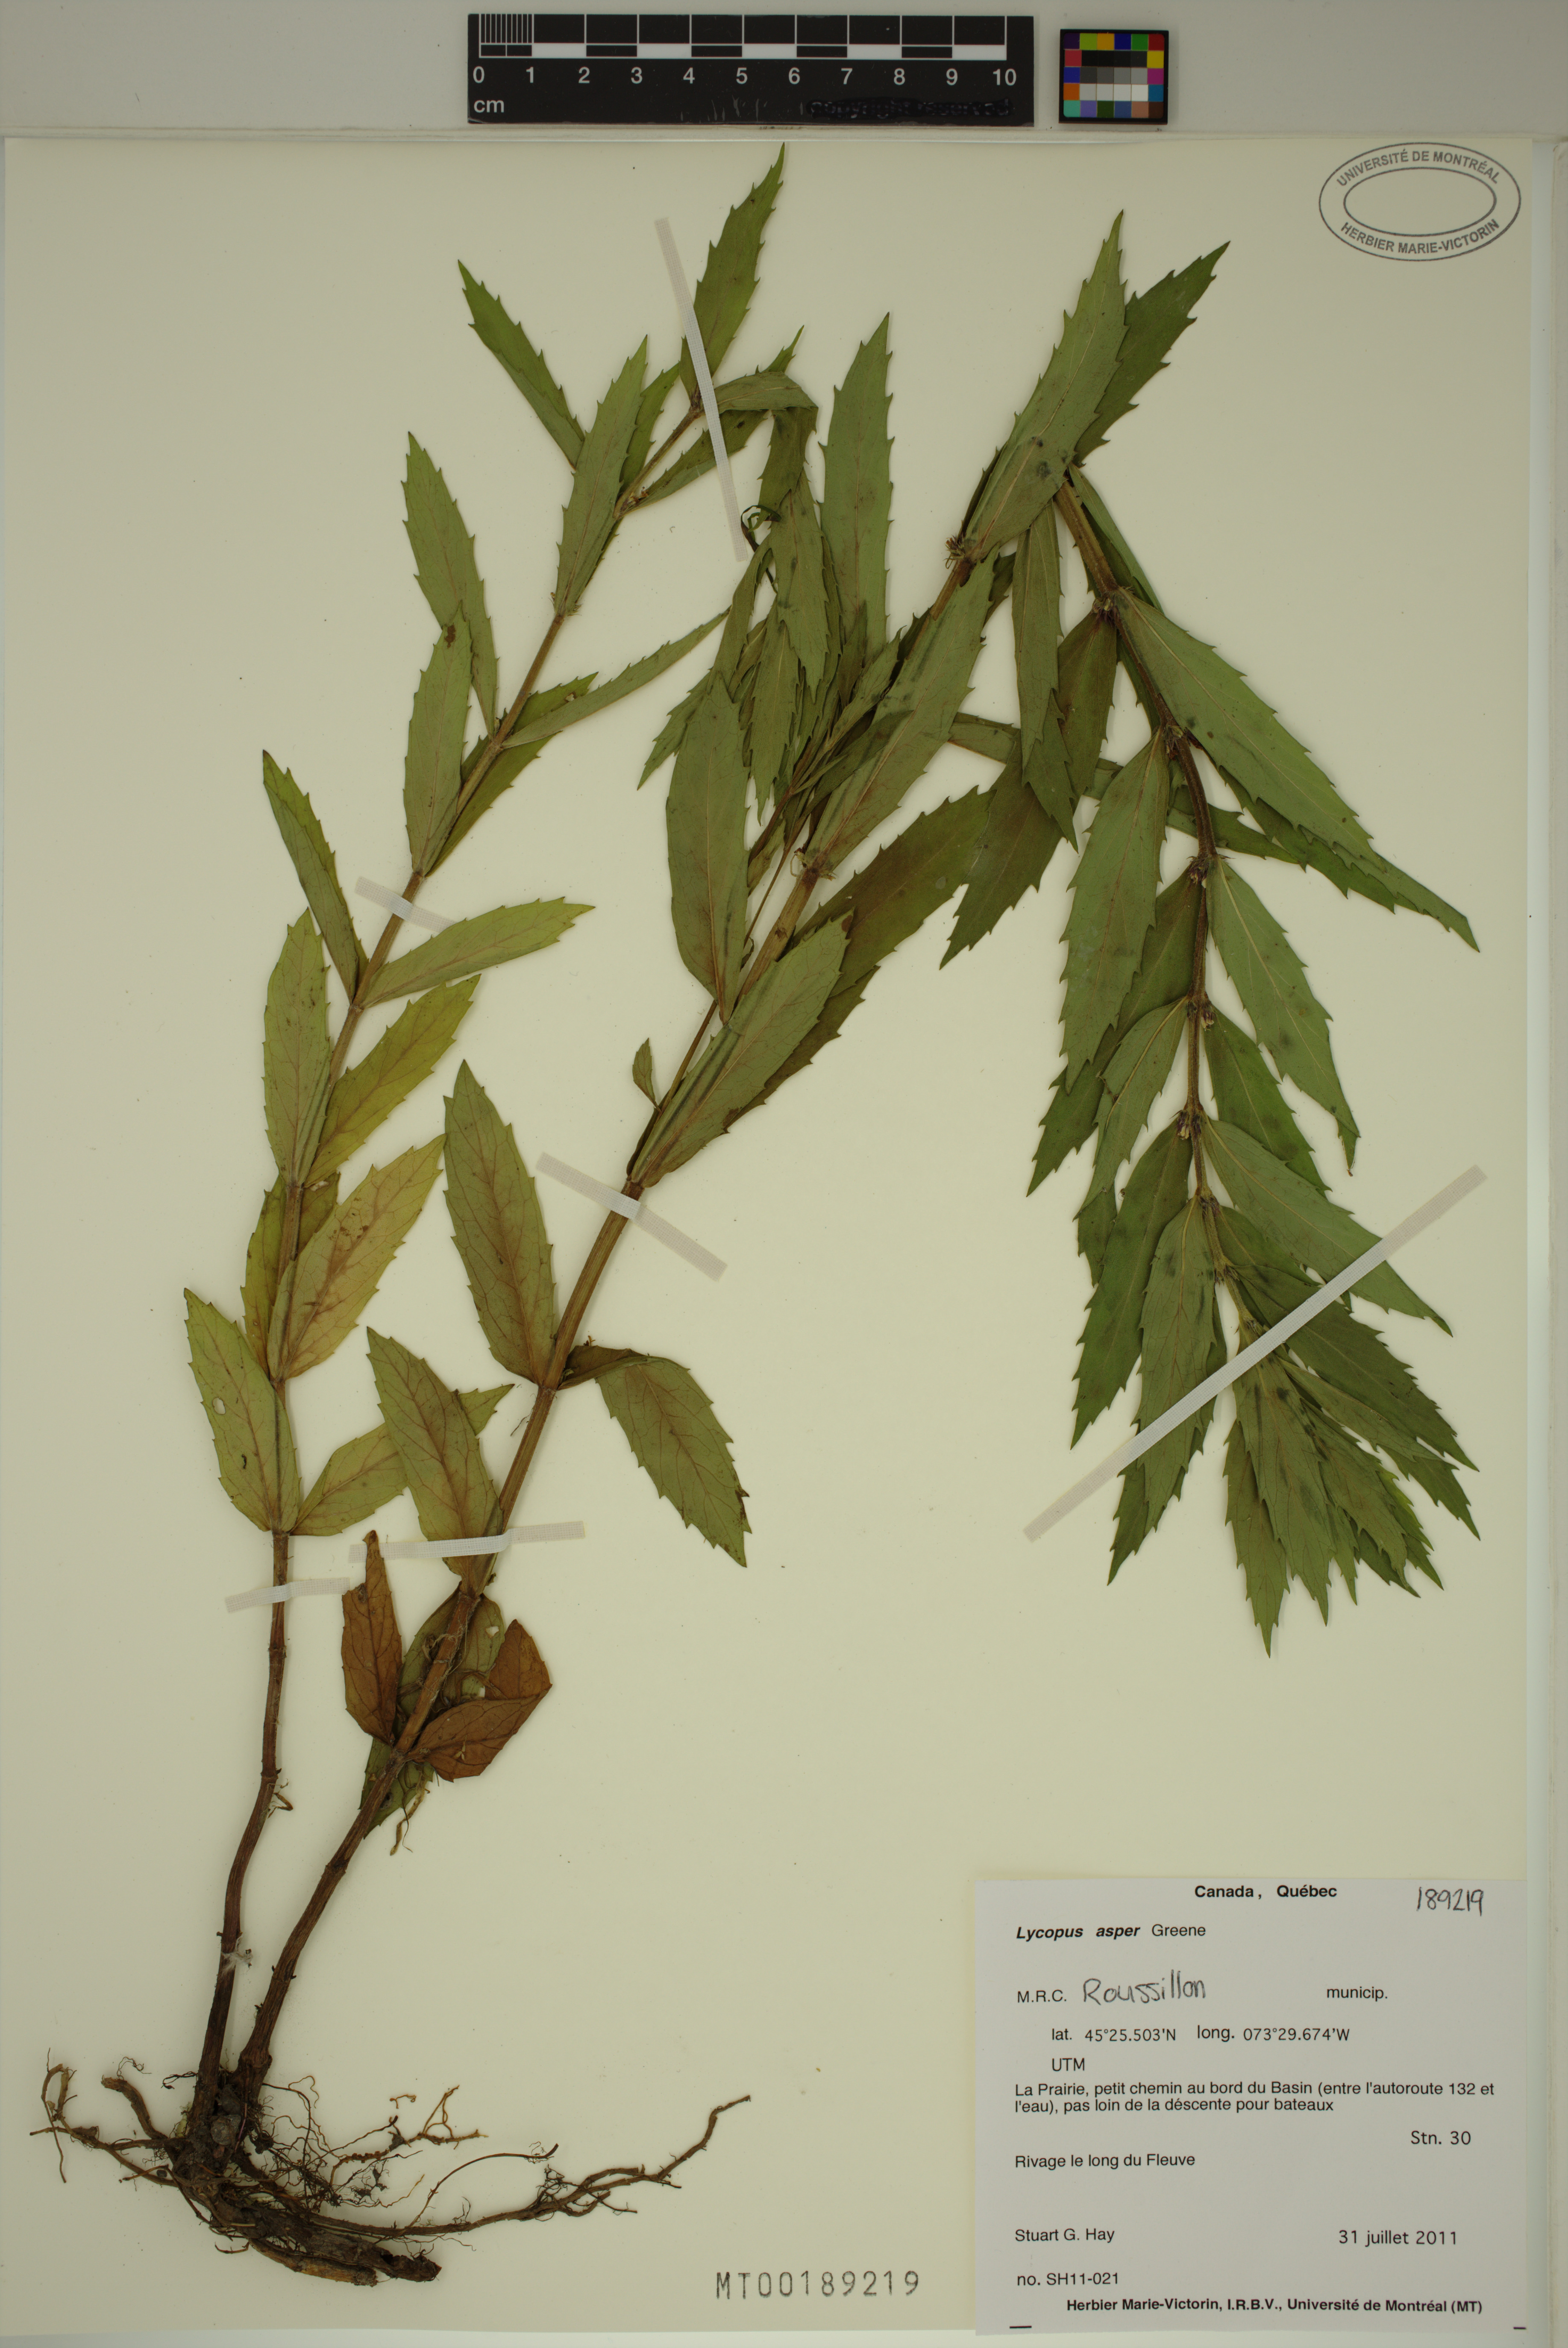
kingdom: Plantae
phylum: Tracheophyta
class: Magnoliopsida
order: Lamiales
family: Lamiaceae
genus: Lycopus
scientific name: Lycopus asper
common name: Rough water-horehound
